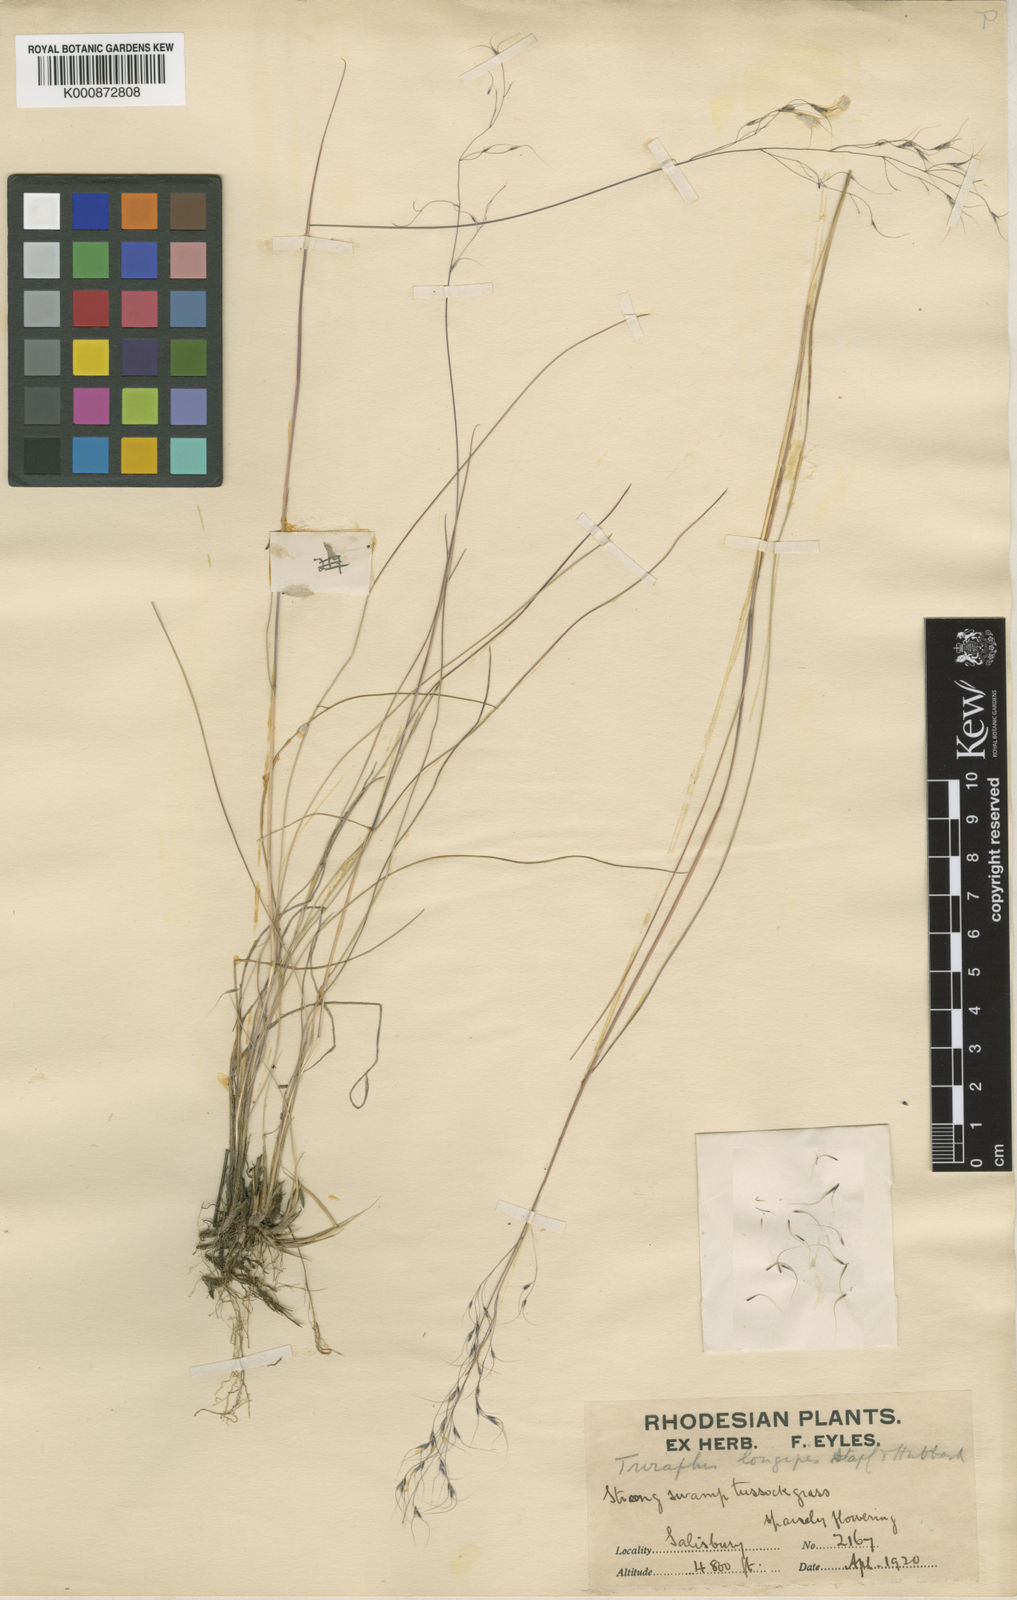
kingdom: Plantae
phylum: Tracheophyta
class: Liliopsida
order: Poales
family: Poaceae
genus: Nematopoa
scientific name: Nematopoa longipes
